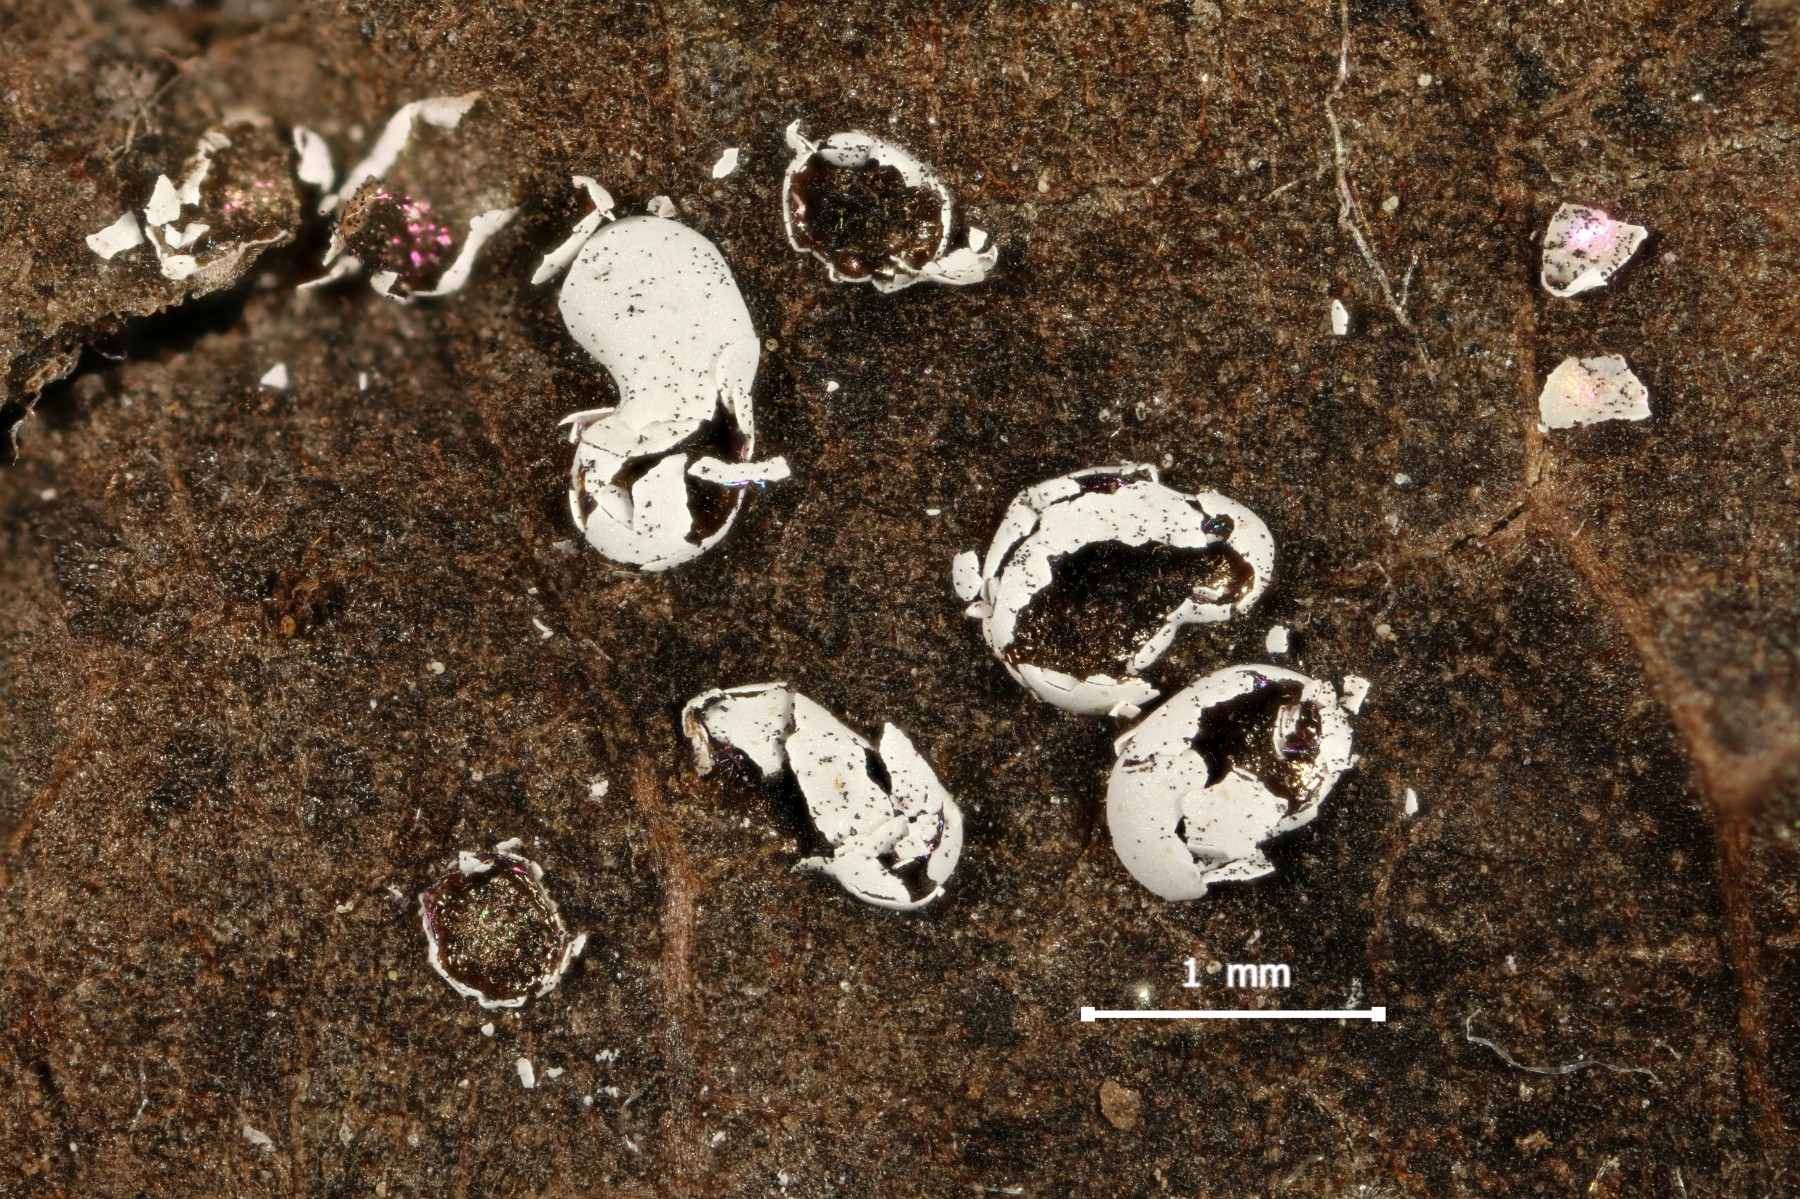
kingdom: Protozoa
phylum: Mycetozoa
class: Myxomycetes
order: Physarales
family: Didymiaceae
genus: Didymium
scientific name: Didymium difforme
